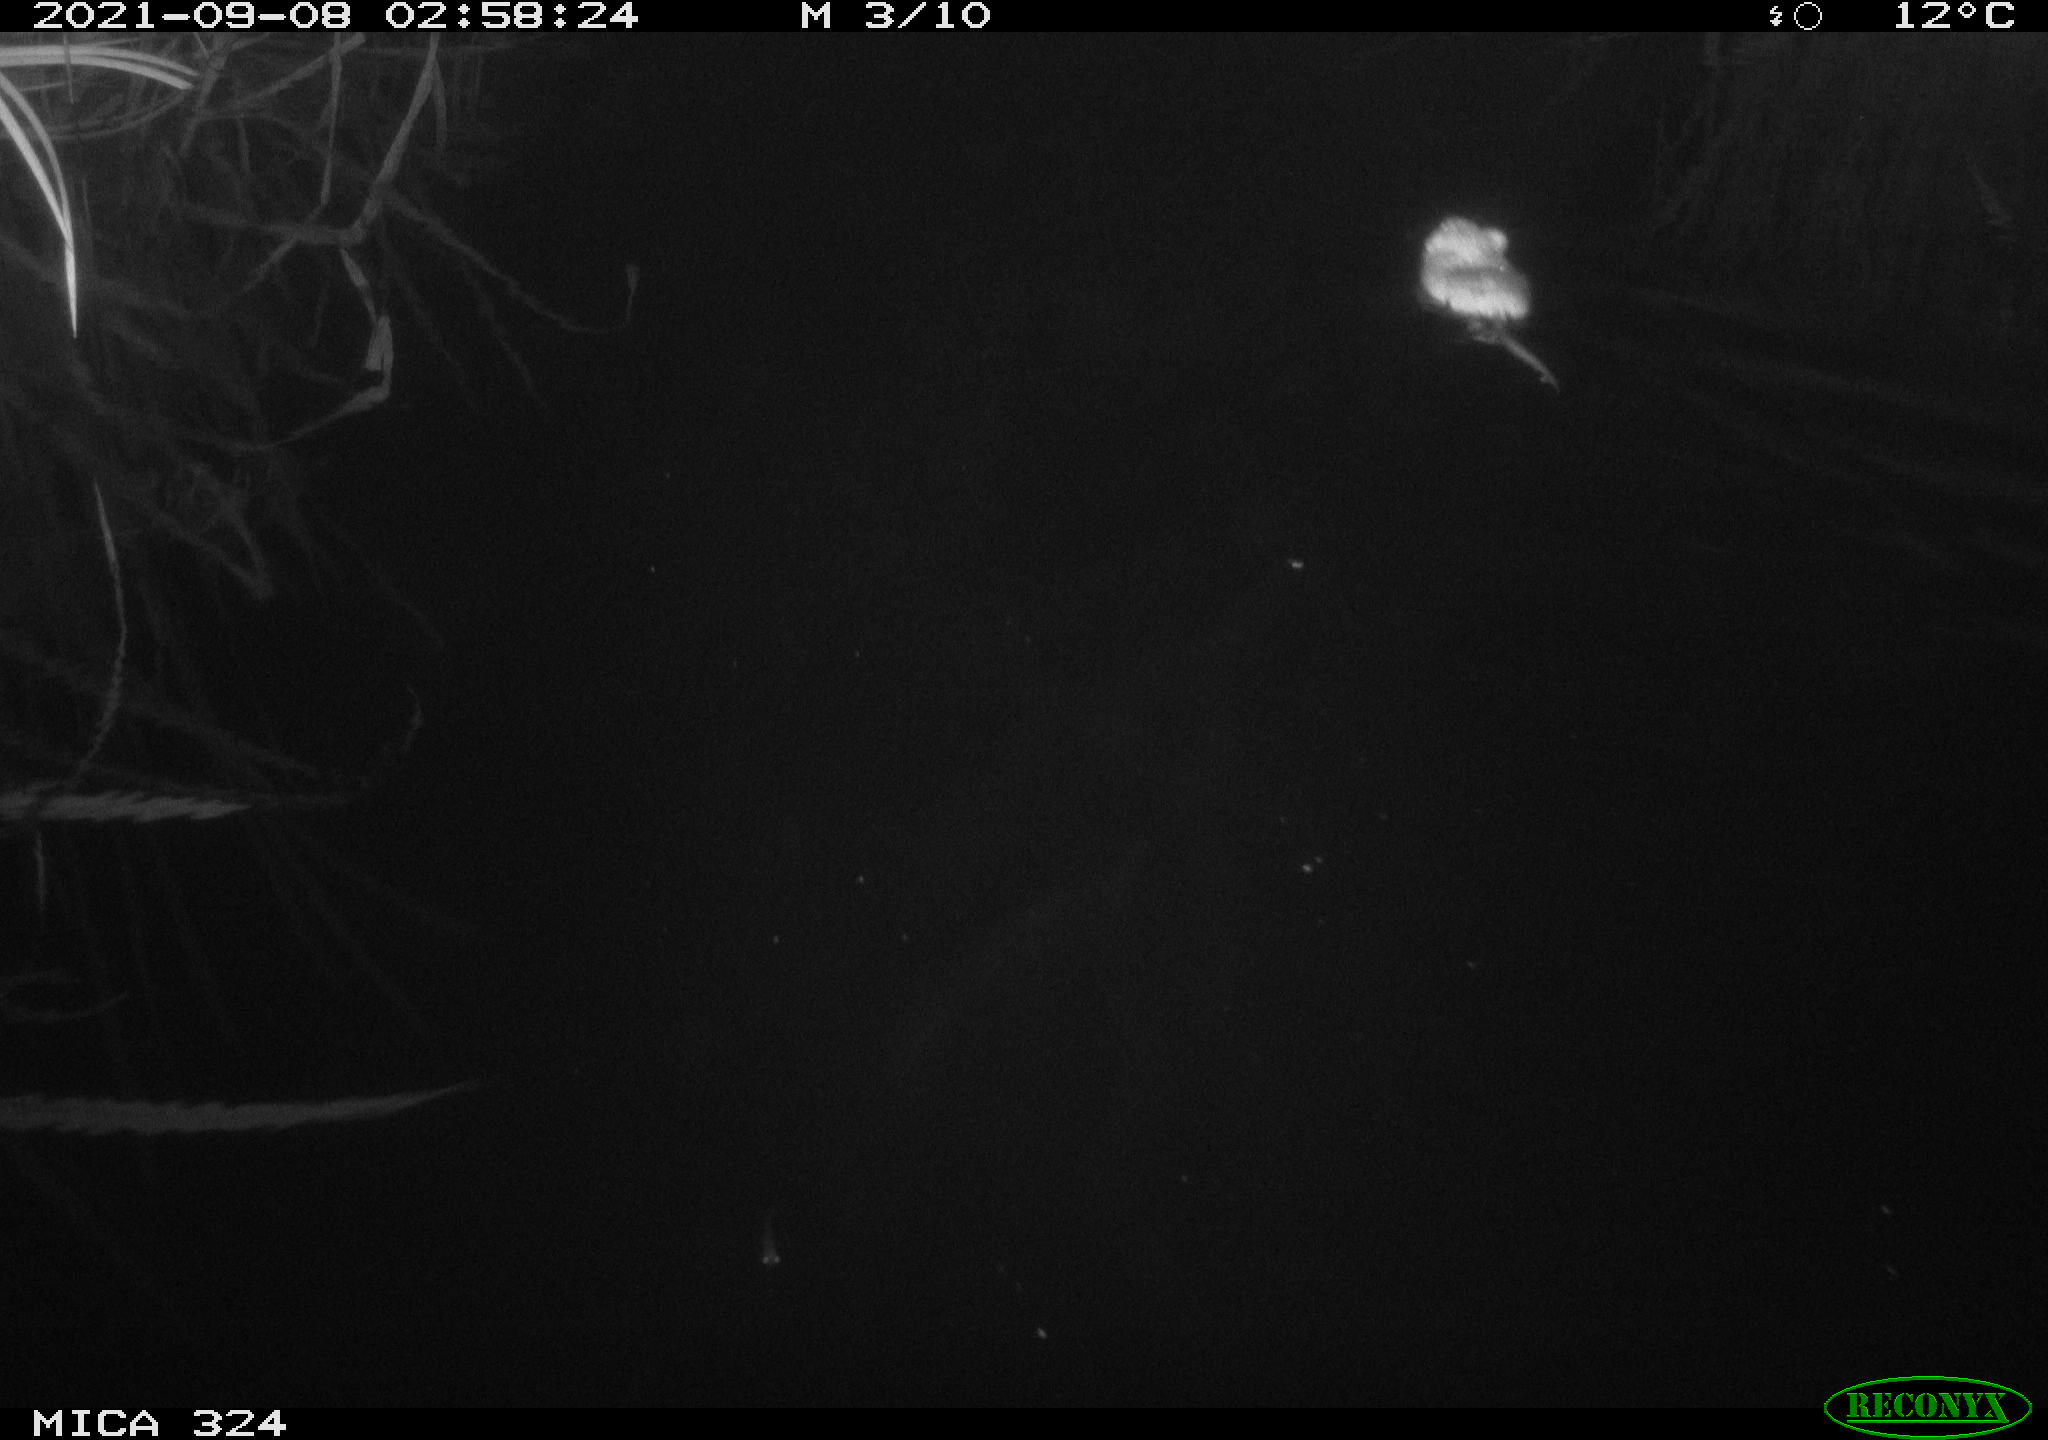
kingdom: Animalia
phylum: Chordata
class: Mammalia
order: Rodentia
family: Cricetidae
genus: Ondatra
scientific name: Ondatra zibethicus
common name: Muskrat
